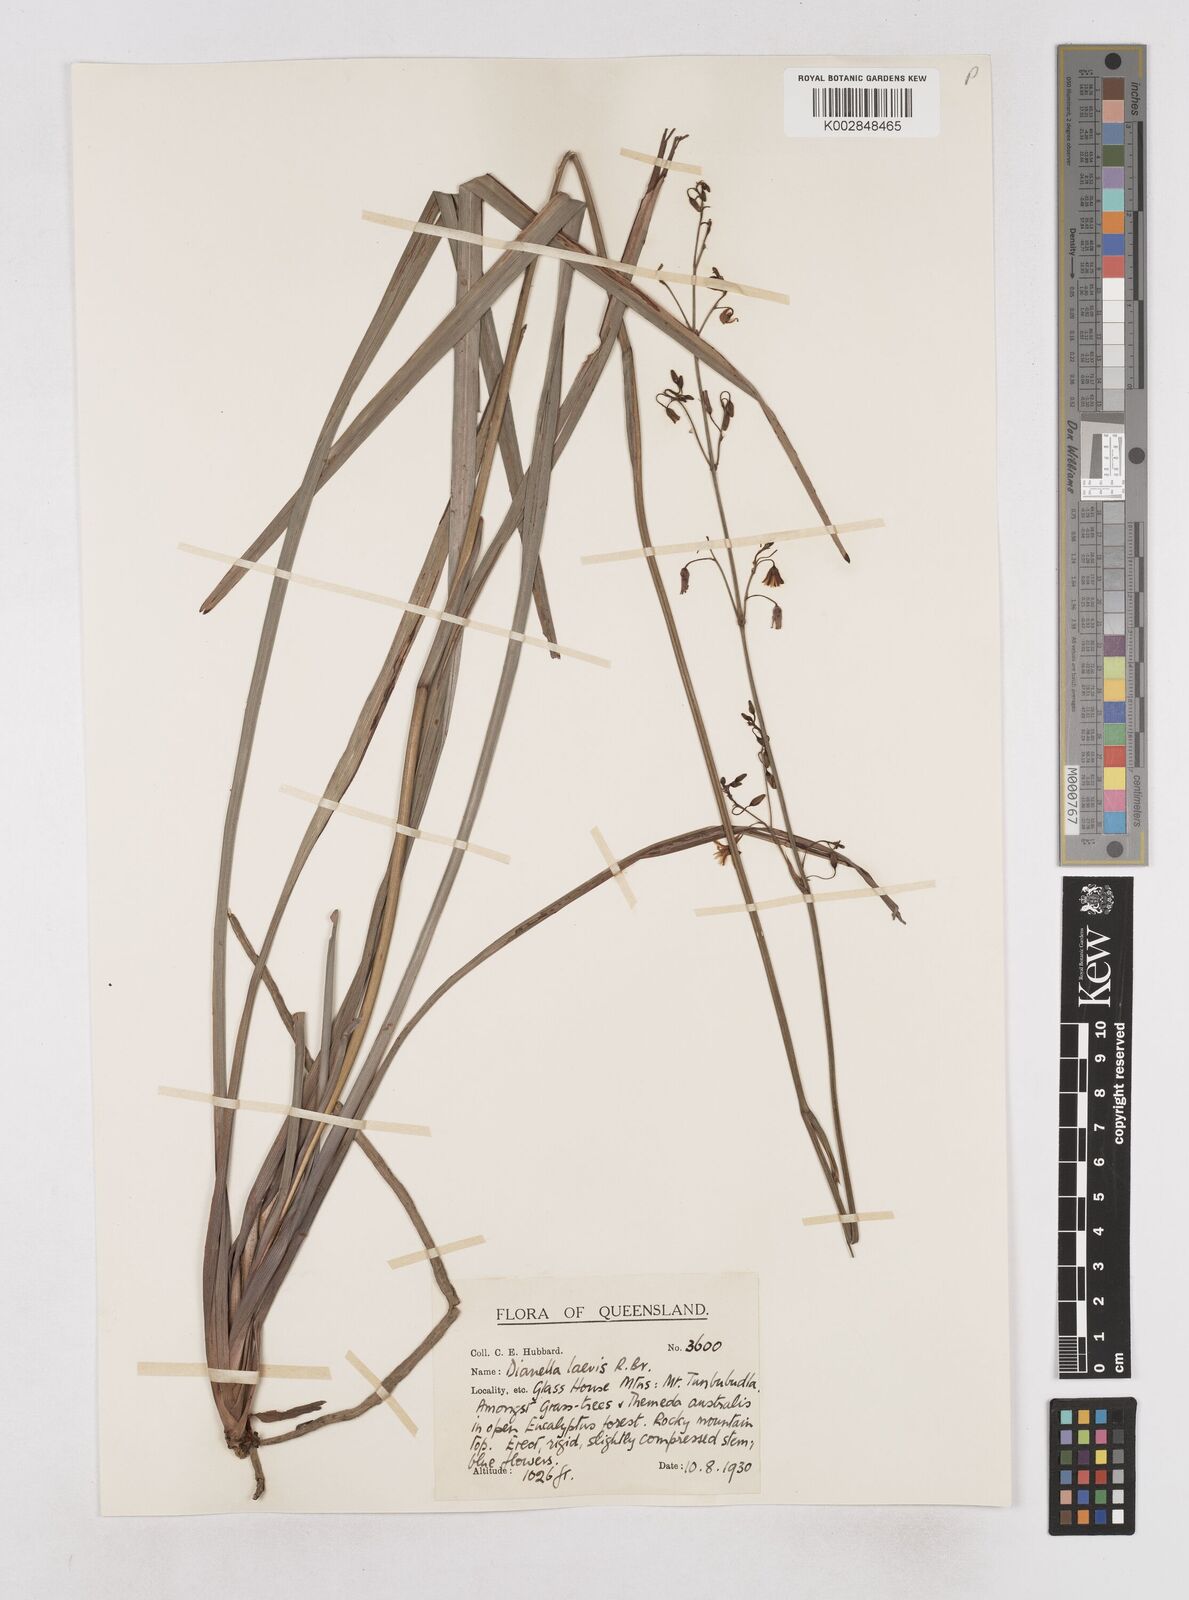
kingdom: Plantae
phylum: Tracheophyta
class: Liliopsida
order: Asparagales
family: Asphodelaceae
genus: Dianella
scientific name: Dianella longifolia
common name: Blue flax-lily
